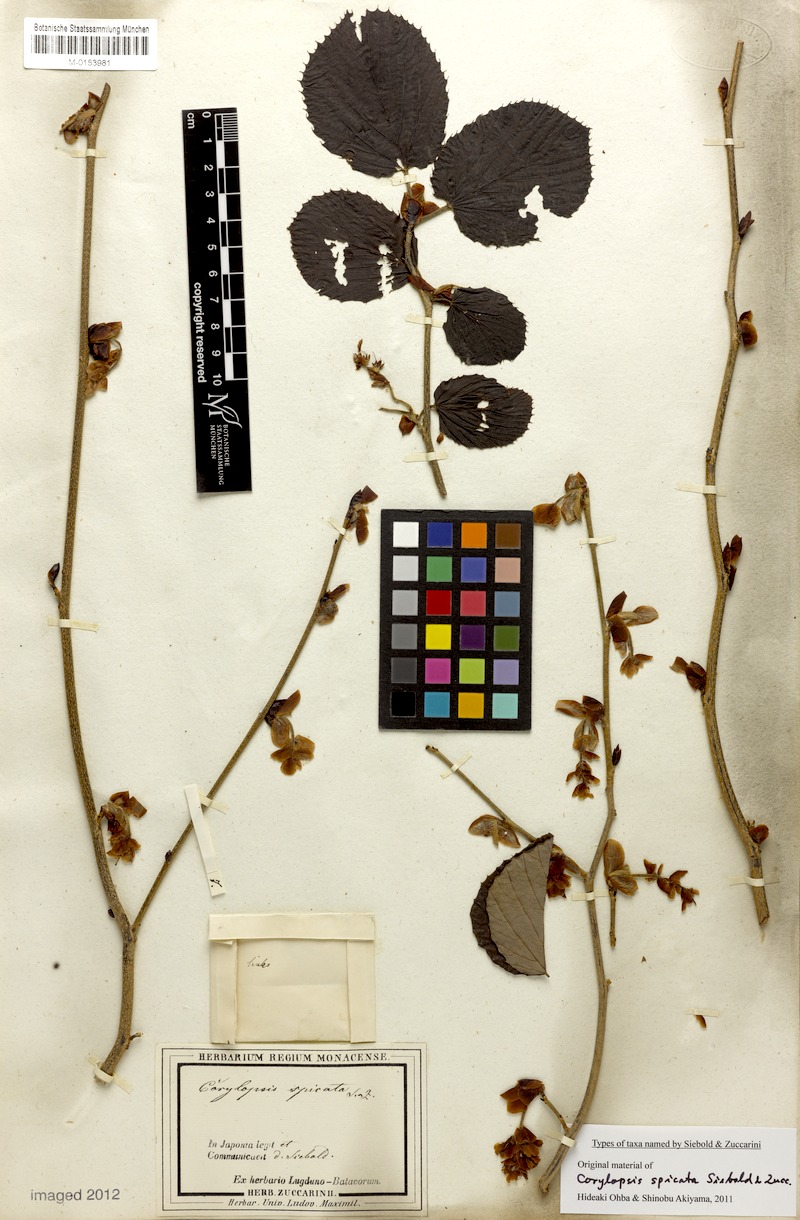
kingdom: Plantae
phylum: Tracheophyta
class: Magnoliopsida
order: Saxifragales
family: Hamamelidaceae
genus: Corylopsis
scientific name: Corylopsis spicata
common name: Spike winter-hazel
